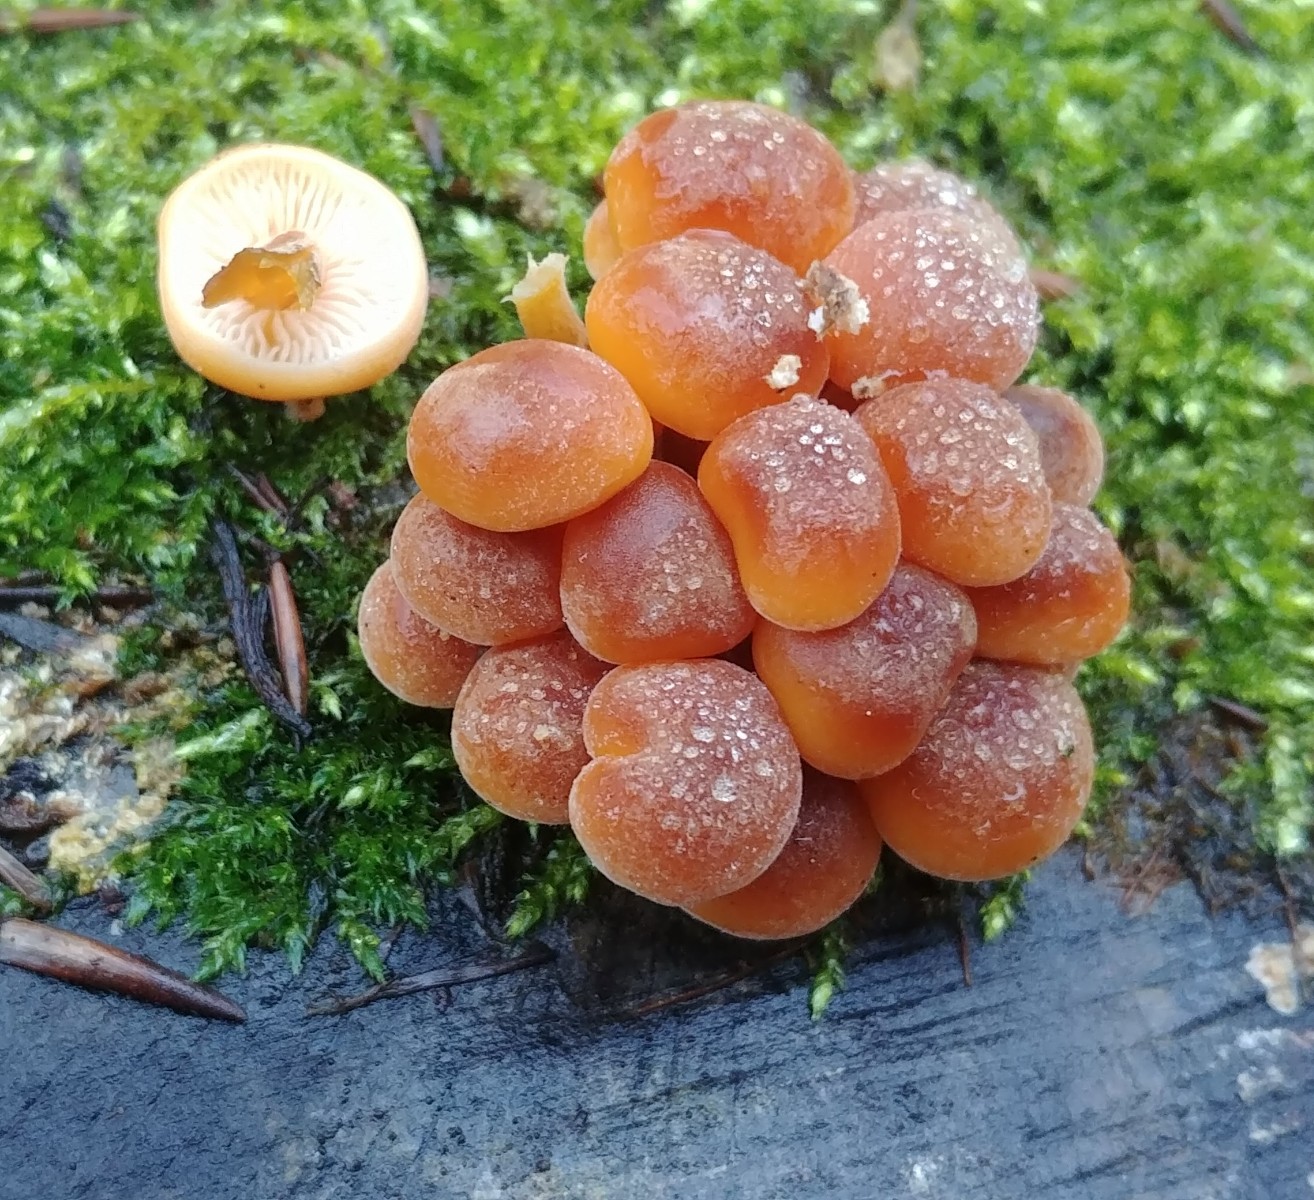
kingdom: Fungi
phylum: Basidiomycota
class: Agaricomycetes
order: Agaricales
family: Physalacriaceae
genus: Flammulina
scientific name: Flammulina
